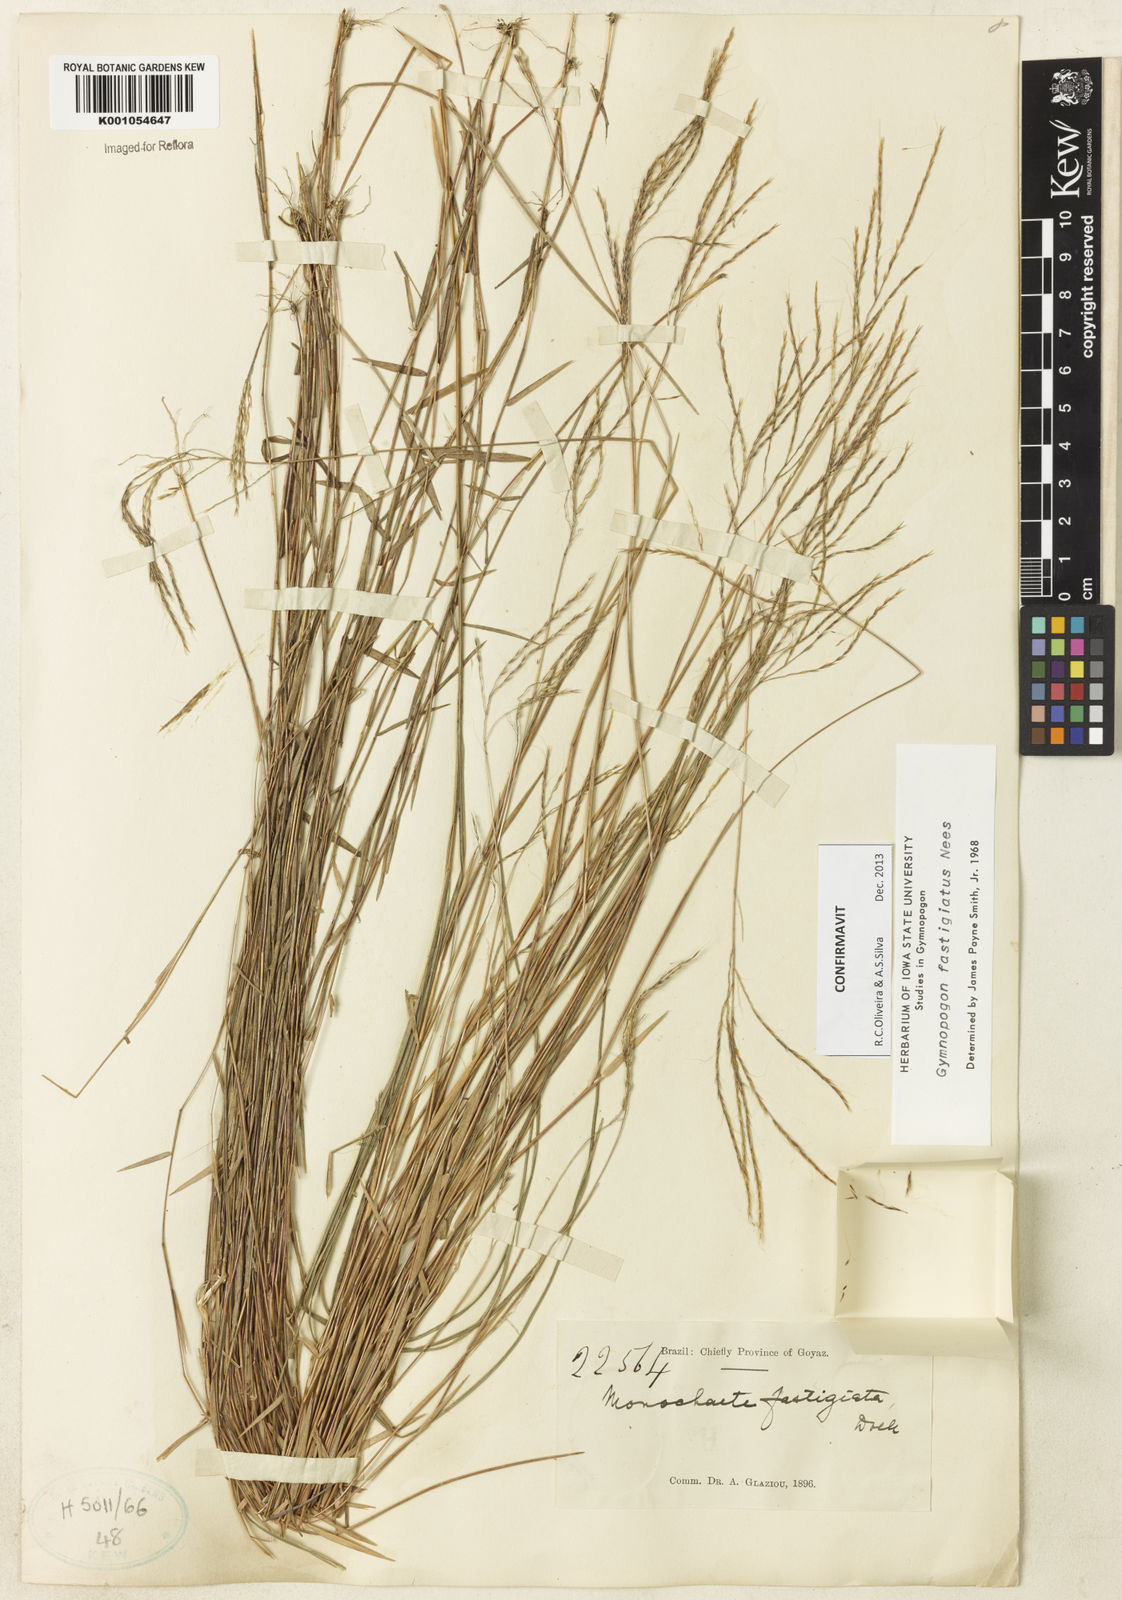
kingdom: Plantae
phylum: Tracheophyta
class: Liliopsida
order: Poales
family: Poaceae
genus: Gymnopogon
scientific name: Gymnopogon fastigiatus
